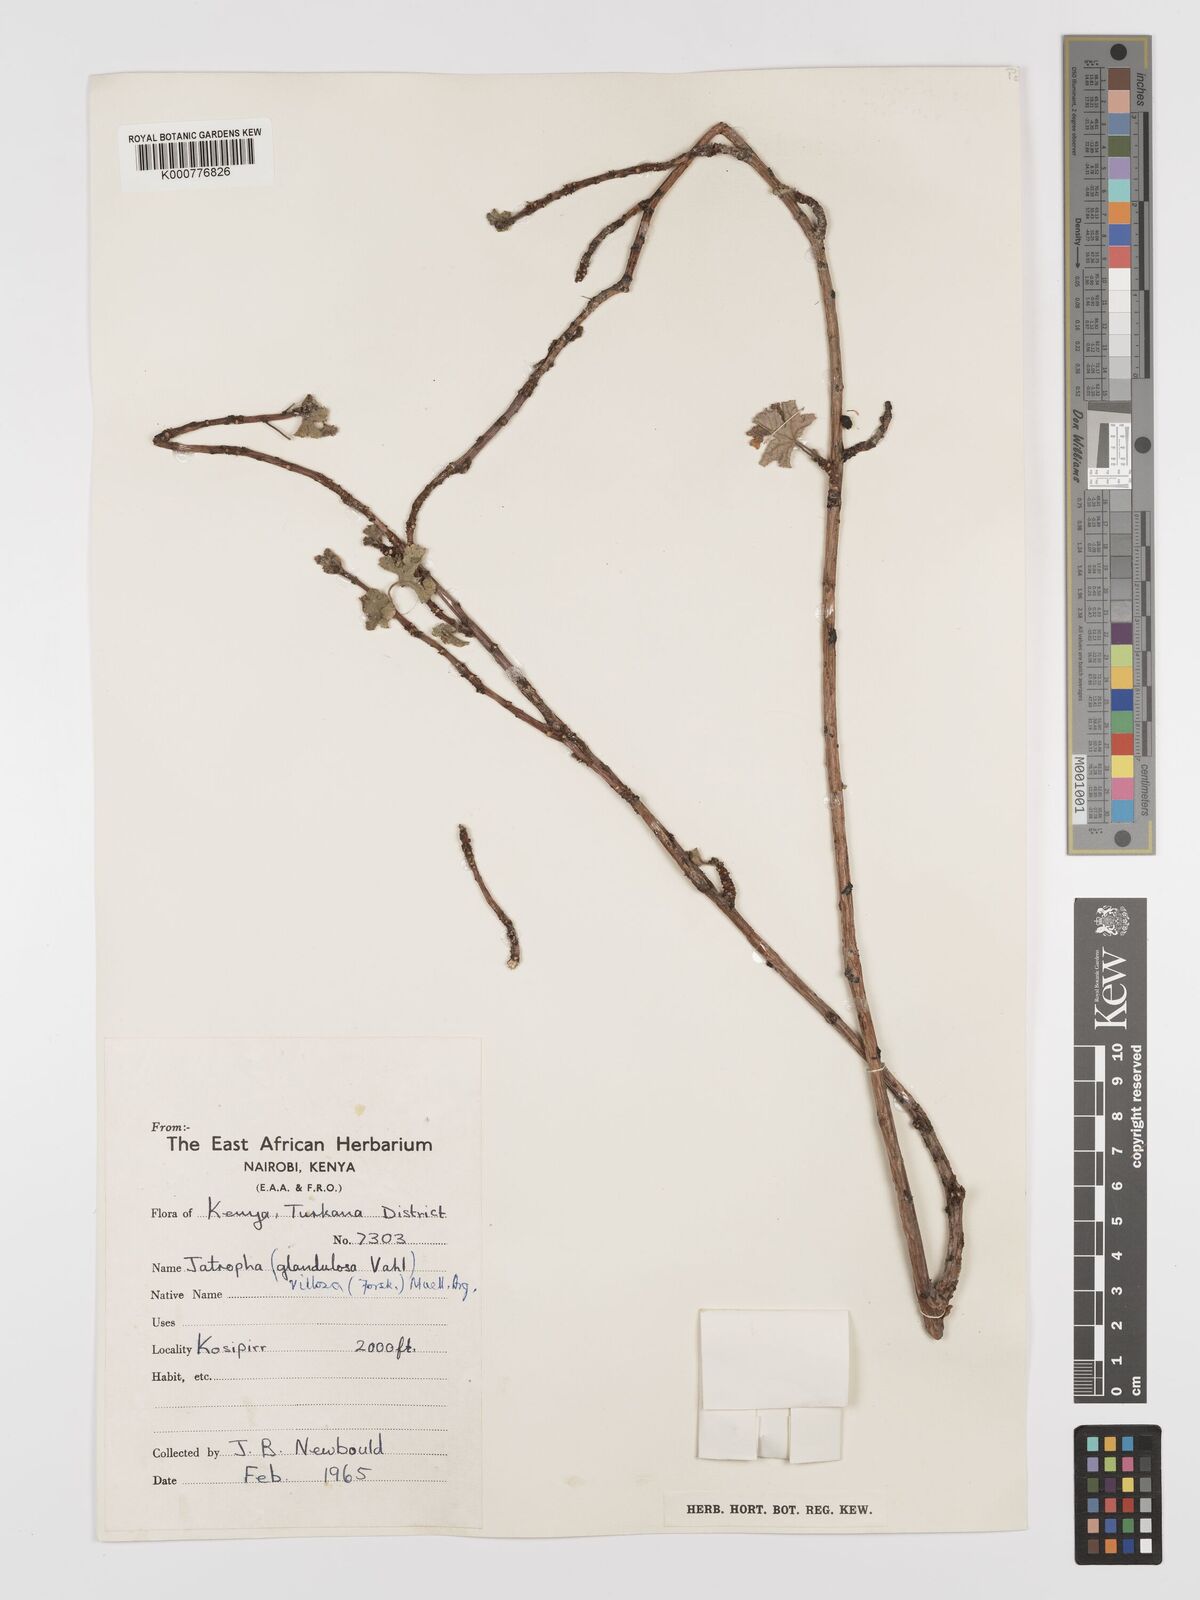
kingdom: Plantae
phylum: Tracheophyta
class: Magnoliopsida
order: Malpighiales
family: Euphorbiaceae
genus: Jatropha
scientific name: Jatropha pelargoniifolia
